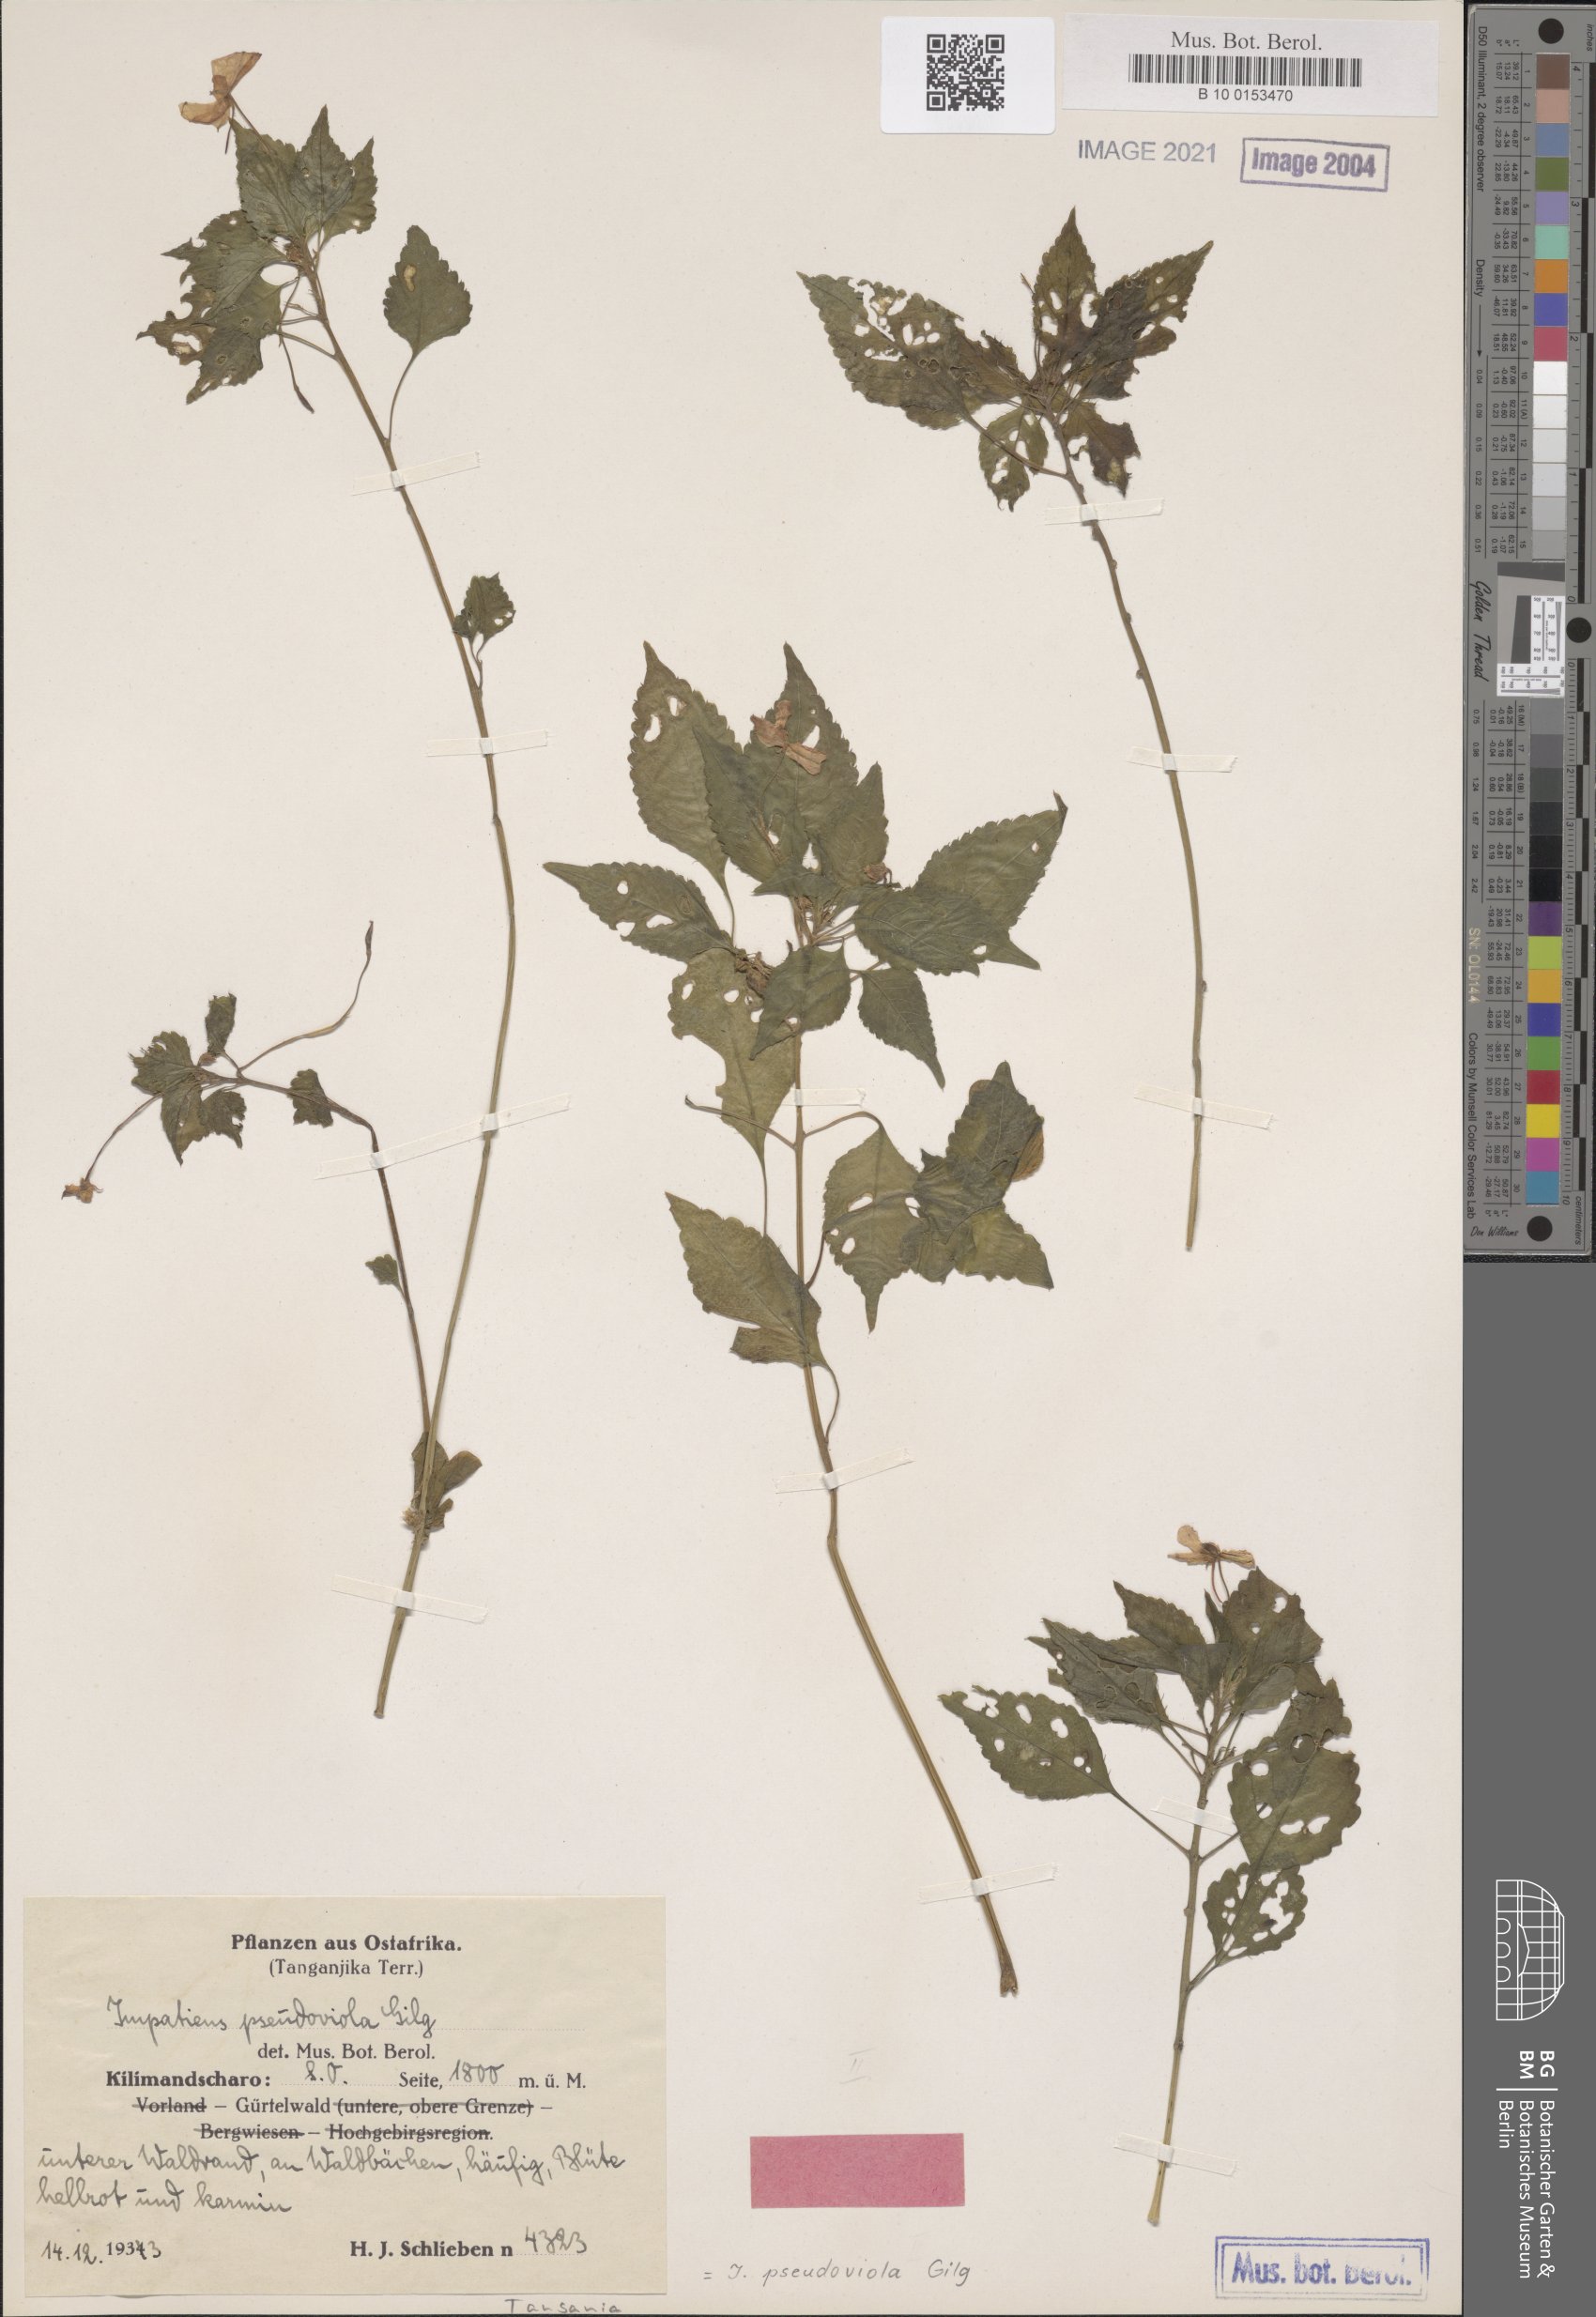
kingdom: Plantae
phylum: Tracheophyta
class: Magnoliopsida
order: Ericales
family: Balsaminaceae
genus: Impatiens
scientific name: Impatiens pseudoviola
